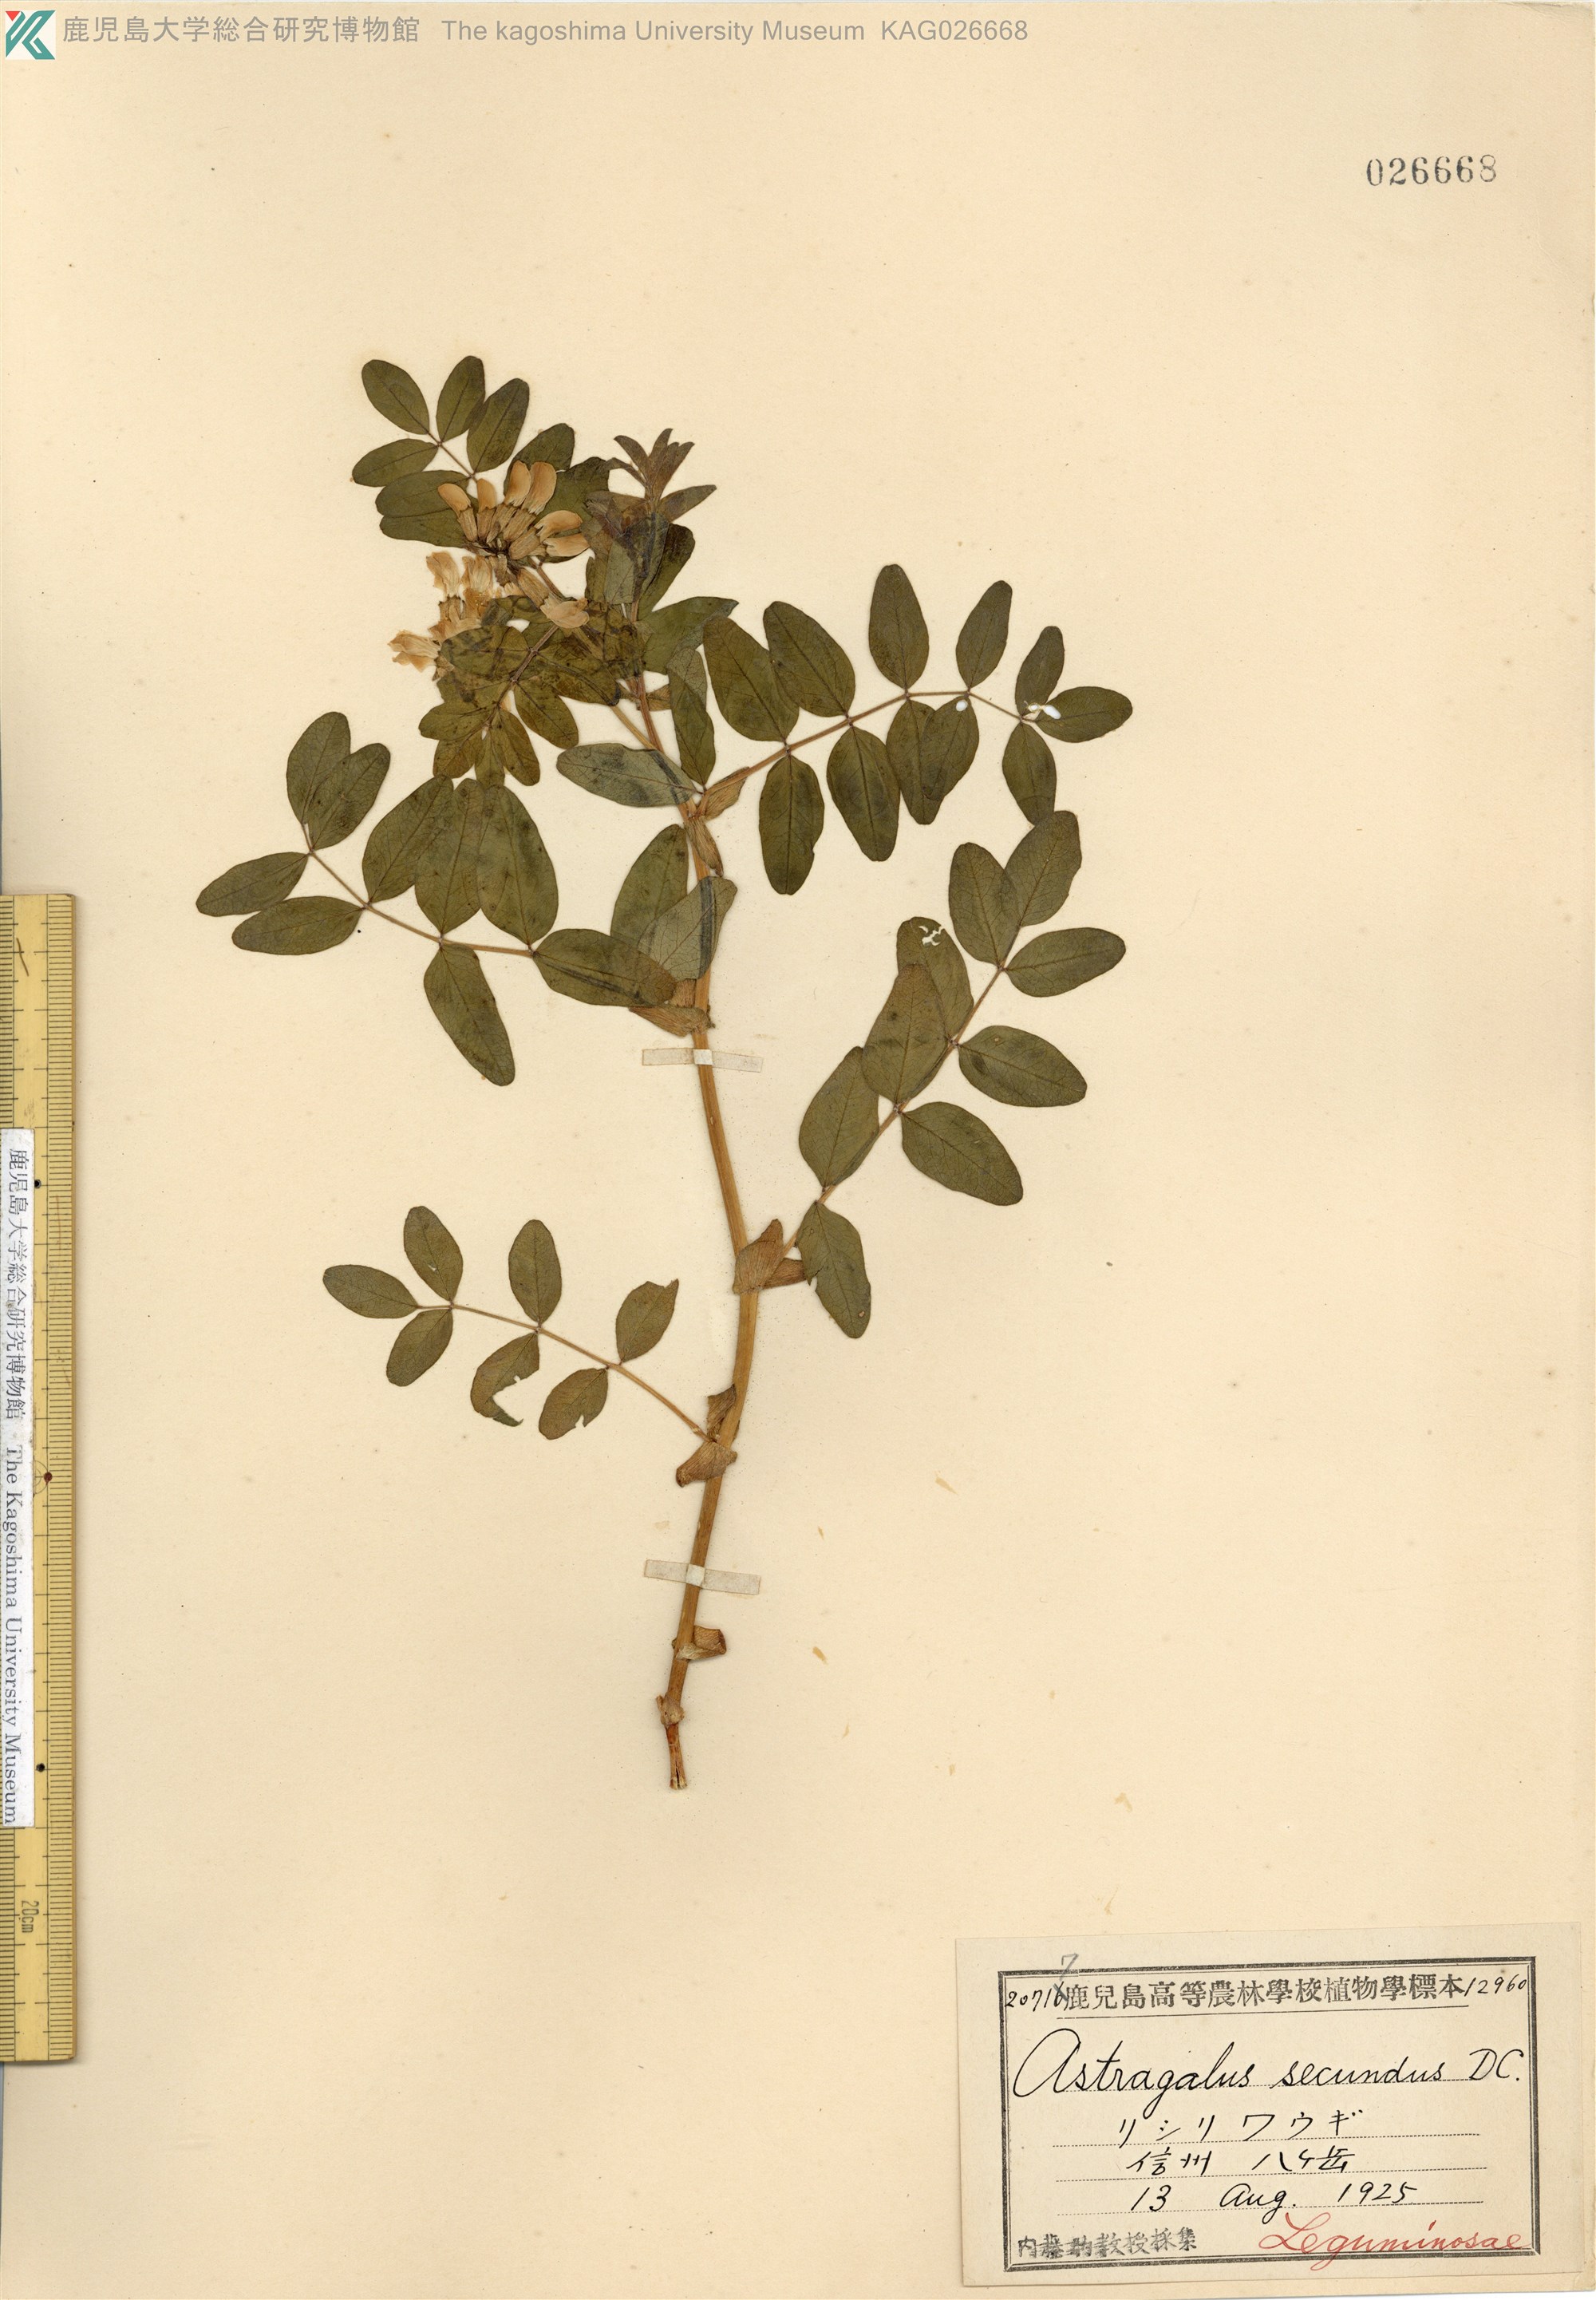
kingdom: Plantae
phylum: Tracheophyta
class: Magnoliopsida
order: Fabales
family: Fabaceae
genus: Astragalus
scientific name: Astragalus frigidus
